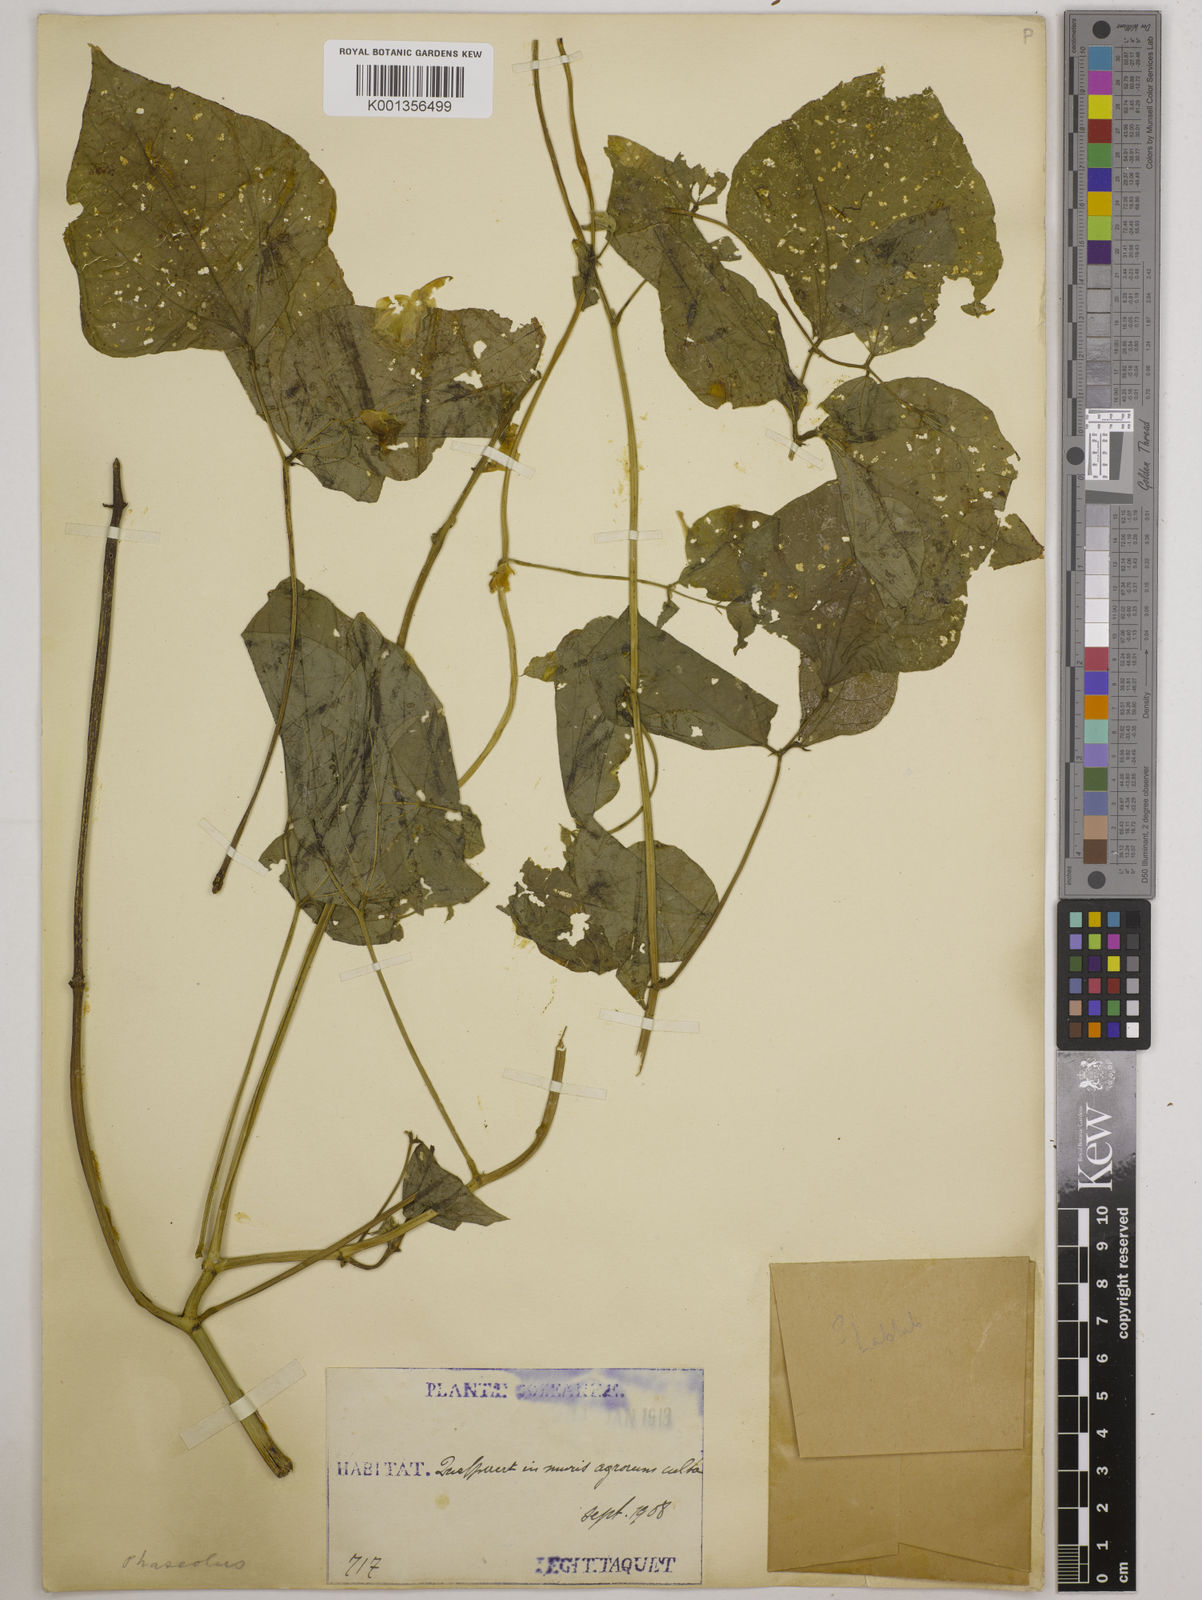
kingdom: Plantae
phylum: Tracheophyta
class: Magnoliopsida
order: Fabales
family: Fabaceae
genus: Lablab
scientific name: Lablab
